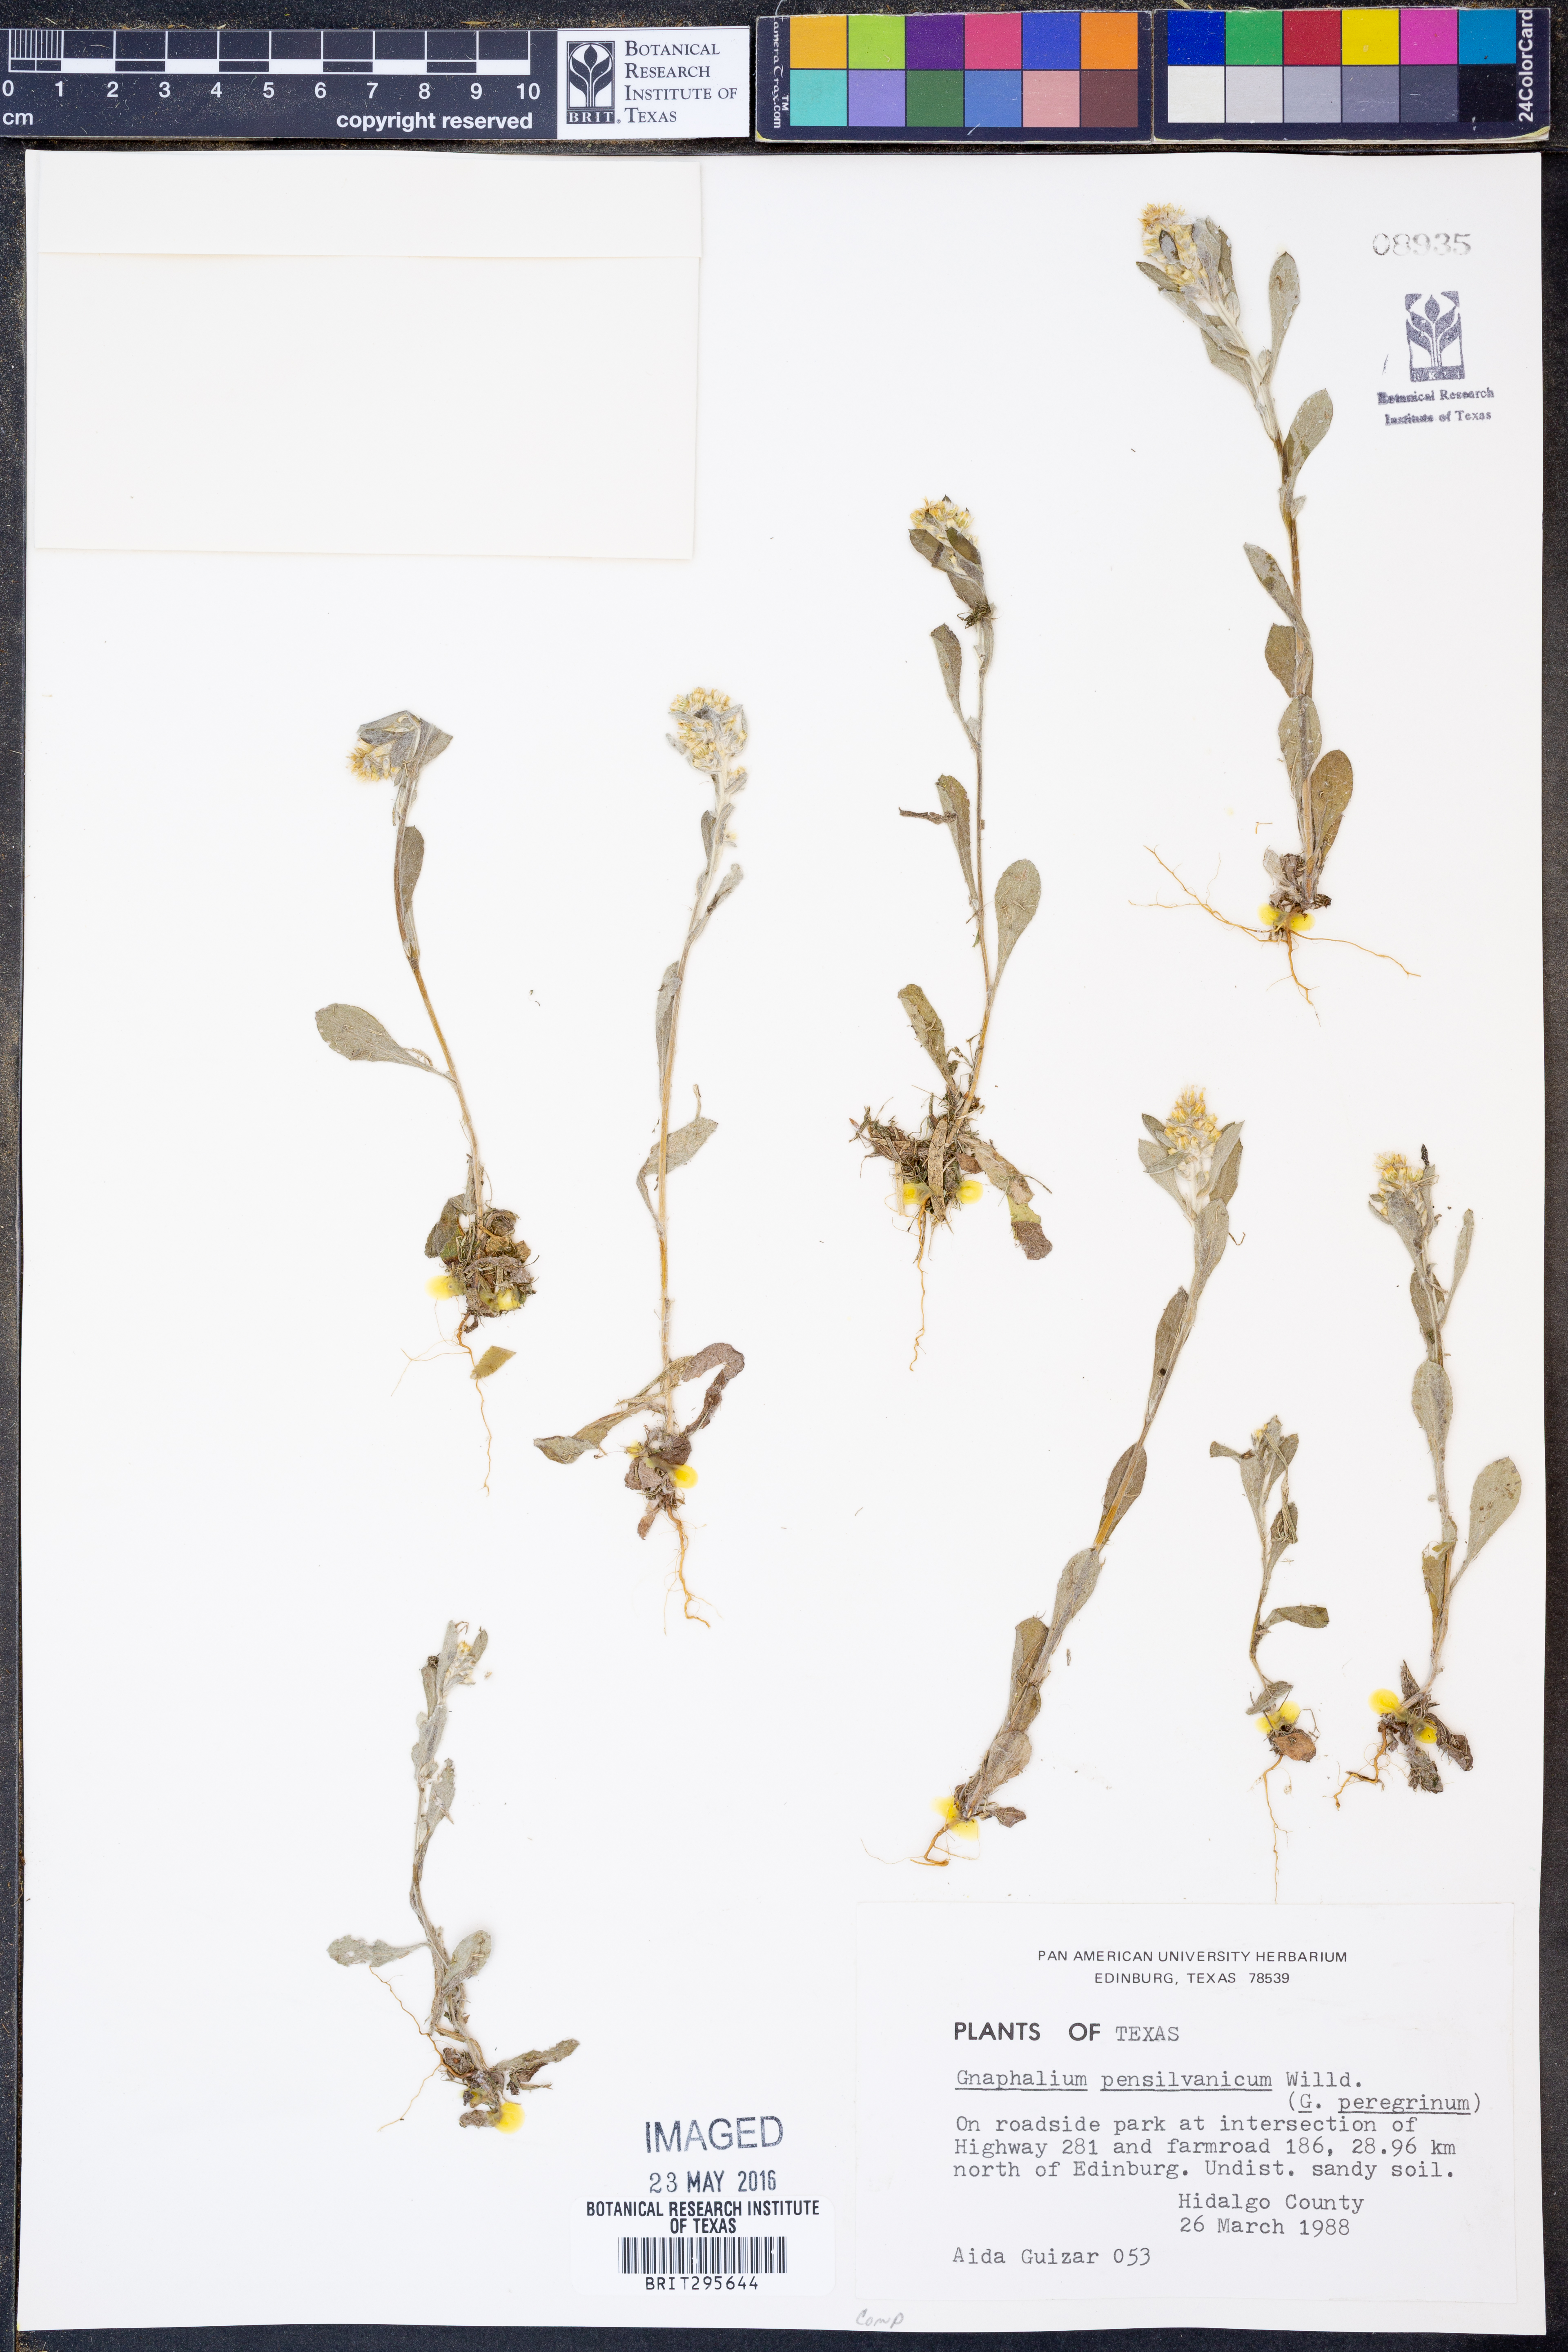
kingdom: Plantae
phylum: Tracheophyta
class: Magnoliopsida
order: Asterales
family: Asteraceae
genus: Gamochaeta
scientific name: Gamochaeta pensylvanica
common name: Pennsylvania everlasting
